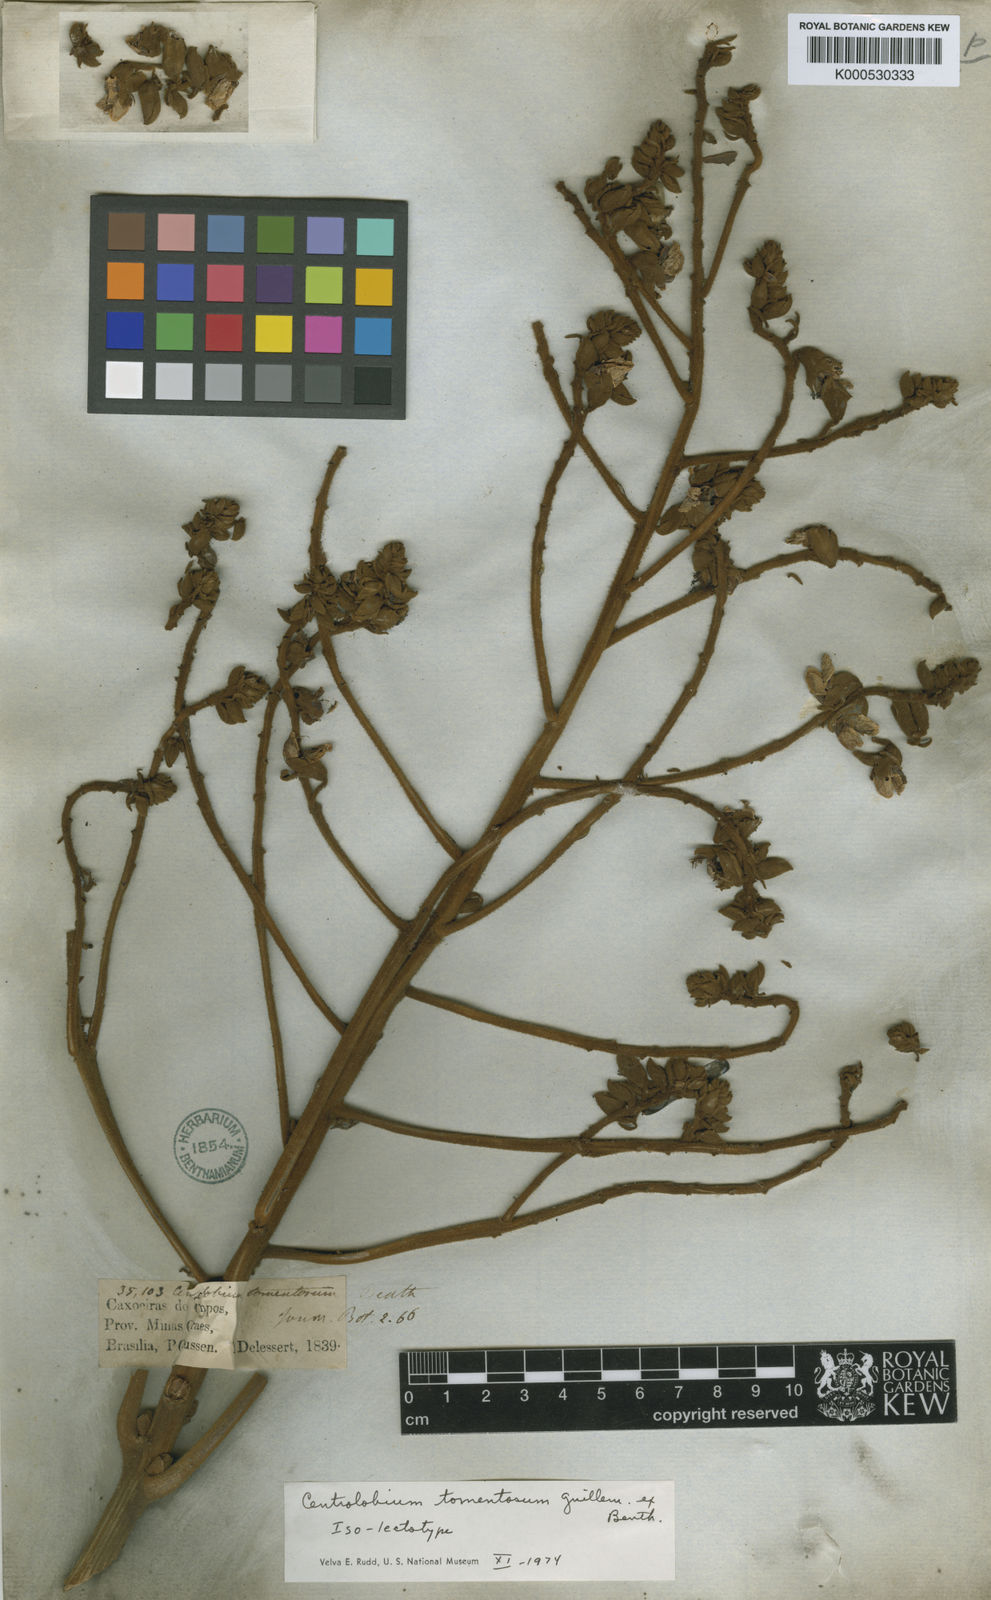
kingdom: Plantae
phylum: Tracheophyta
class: Magnoliopsida
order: Fabales
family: Fabaceae
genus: Centrolobium
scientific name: Centrolobium tomentosum
